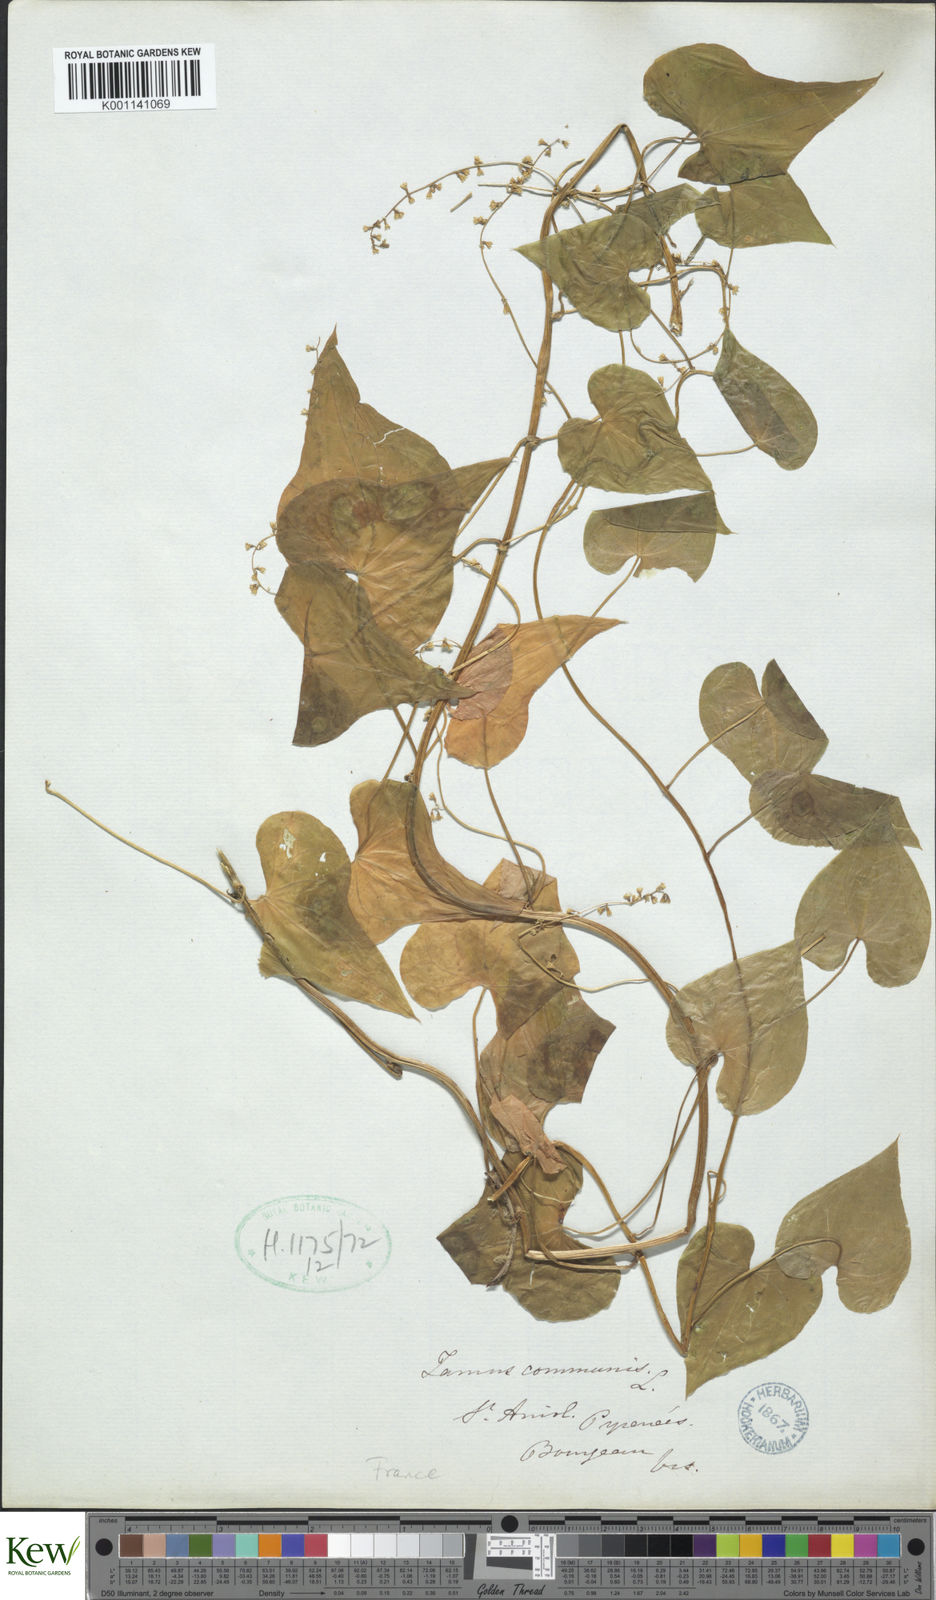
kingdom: Plantae
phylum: Tracheophyta
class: Liliopsida
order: Dioscoreales
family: Dioscoreaceae
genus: Dioscorea
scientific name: Dioscorea communis
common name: Black-bindweed
